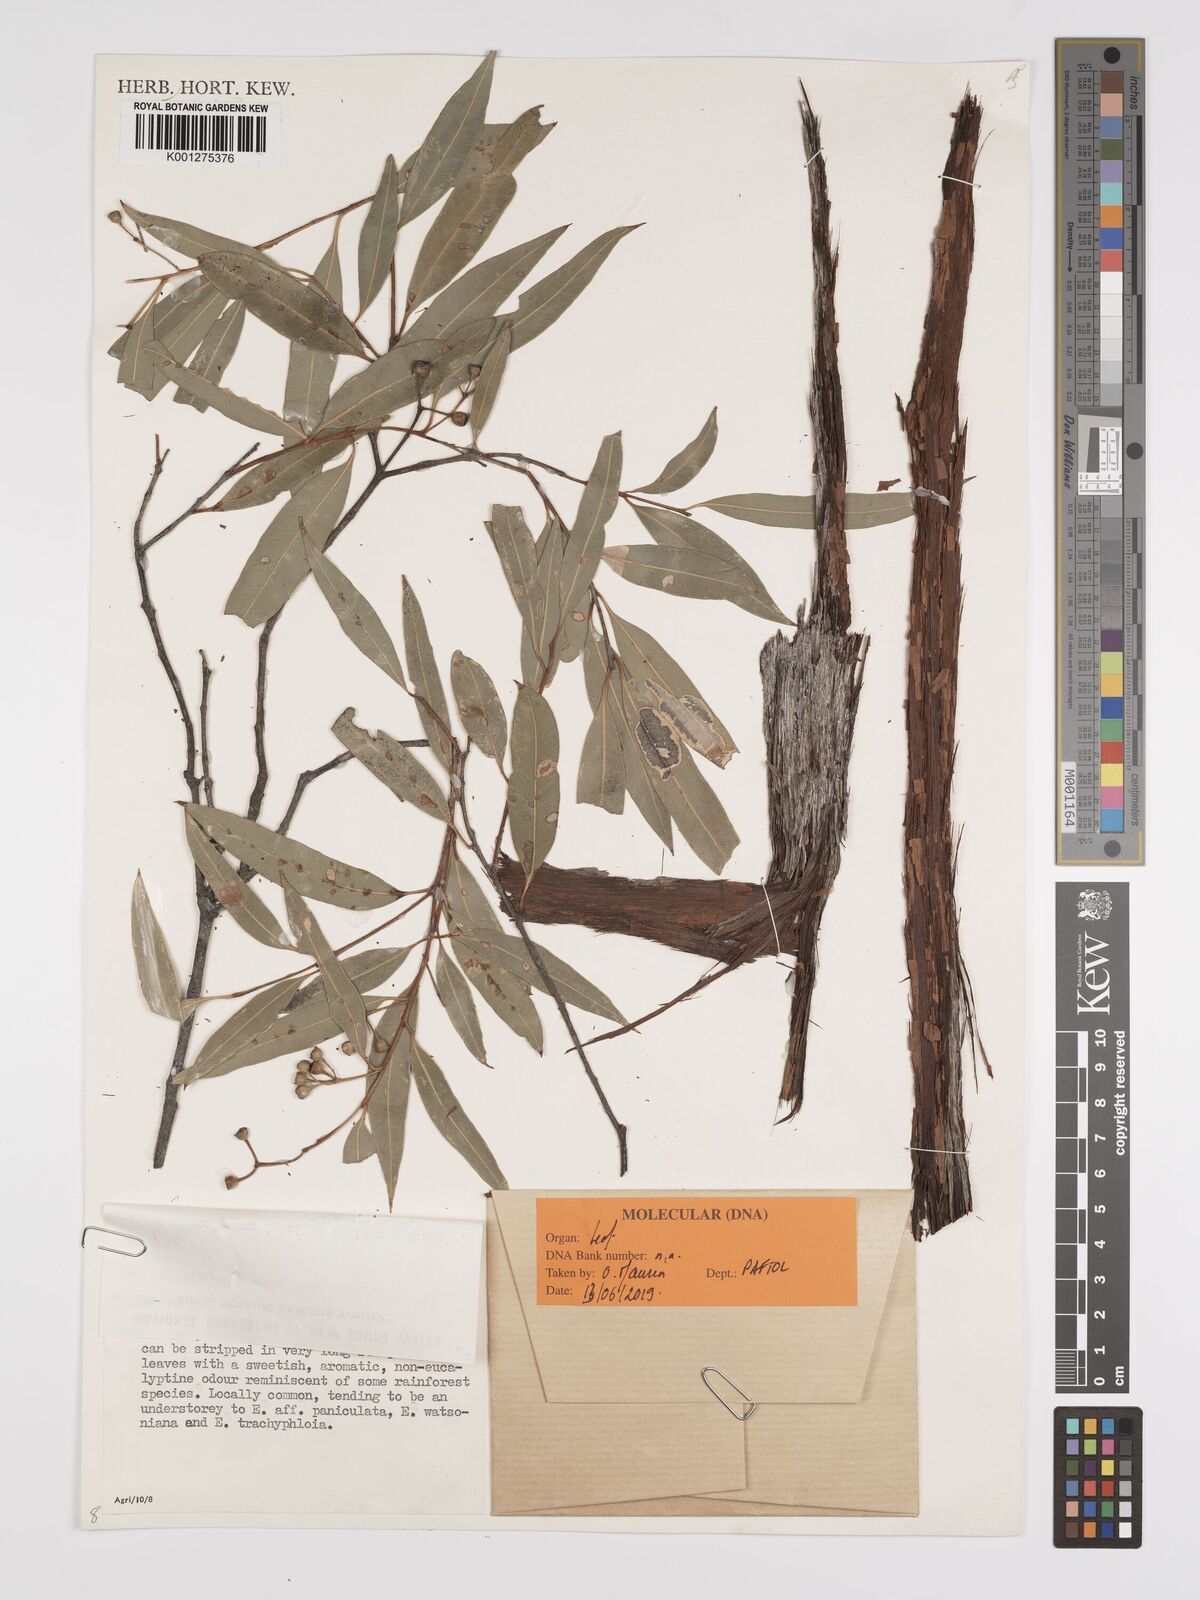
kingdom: Plantae
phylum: Tracheophyta
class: Magnoliopsida
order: Myrtales
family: Myrtaceae
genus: Eucalyptus
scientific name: Eucalyptus tenuipes
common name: Narrow-leaved white mahogany
